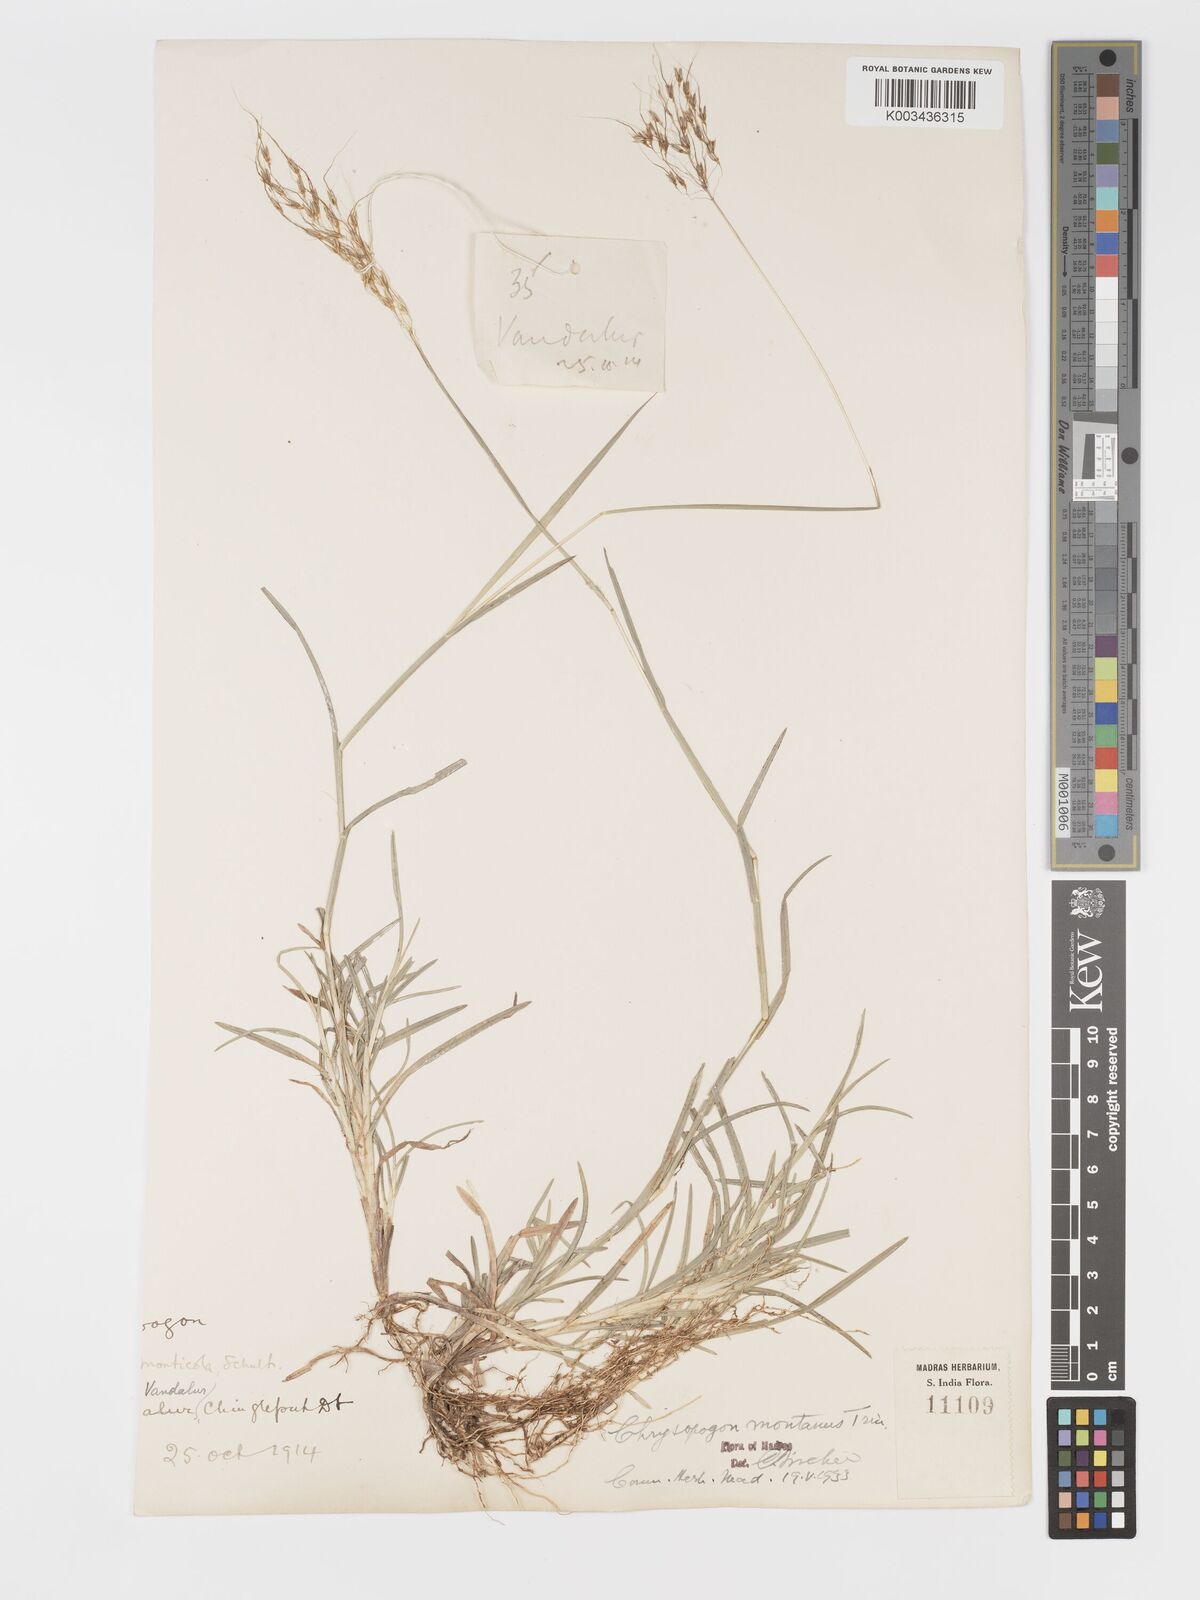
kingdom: Plantae
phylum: Tracheophyta
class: Liliopsida
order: Poales
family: Poaceae
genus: Chrysopogon
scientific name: Chrysopogon fulvus
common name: Red false beardgrass
